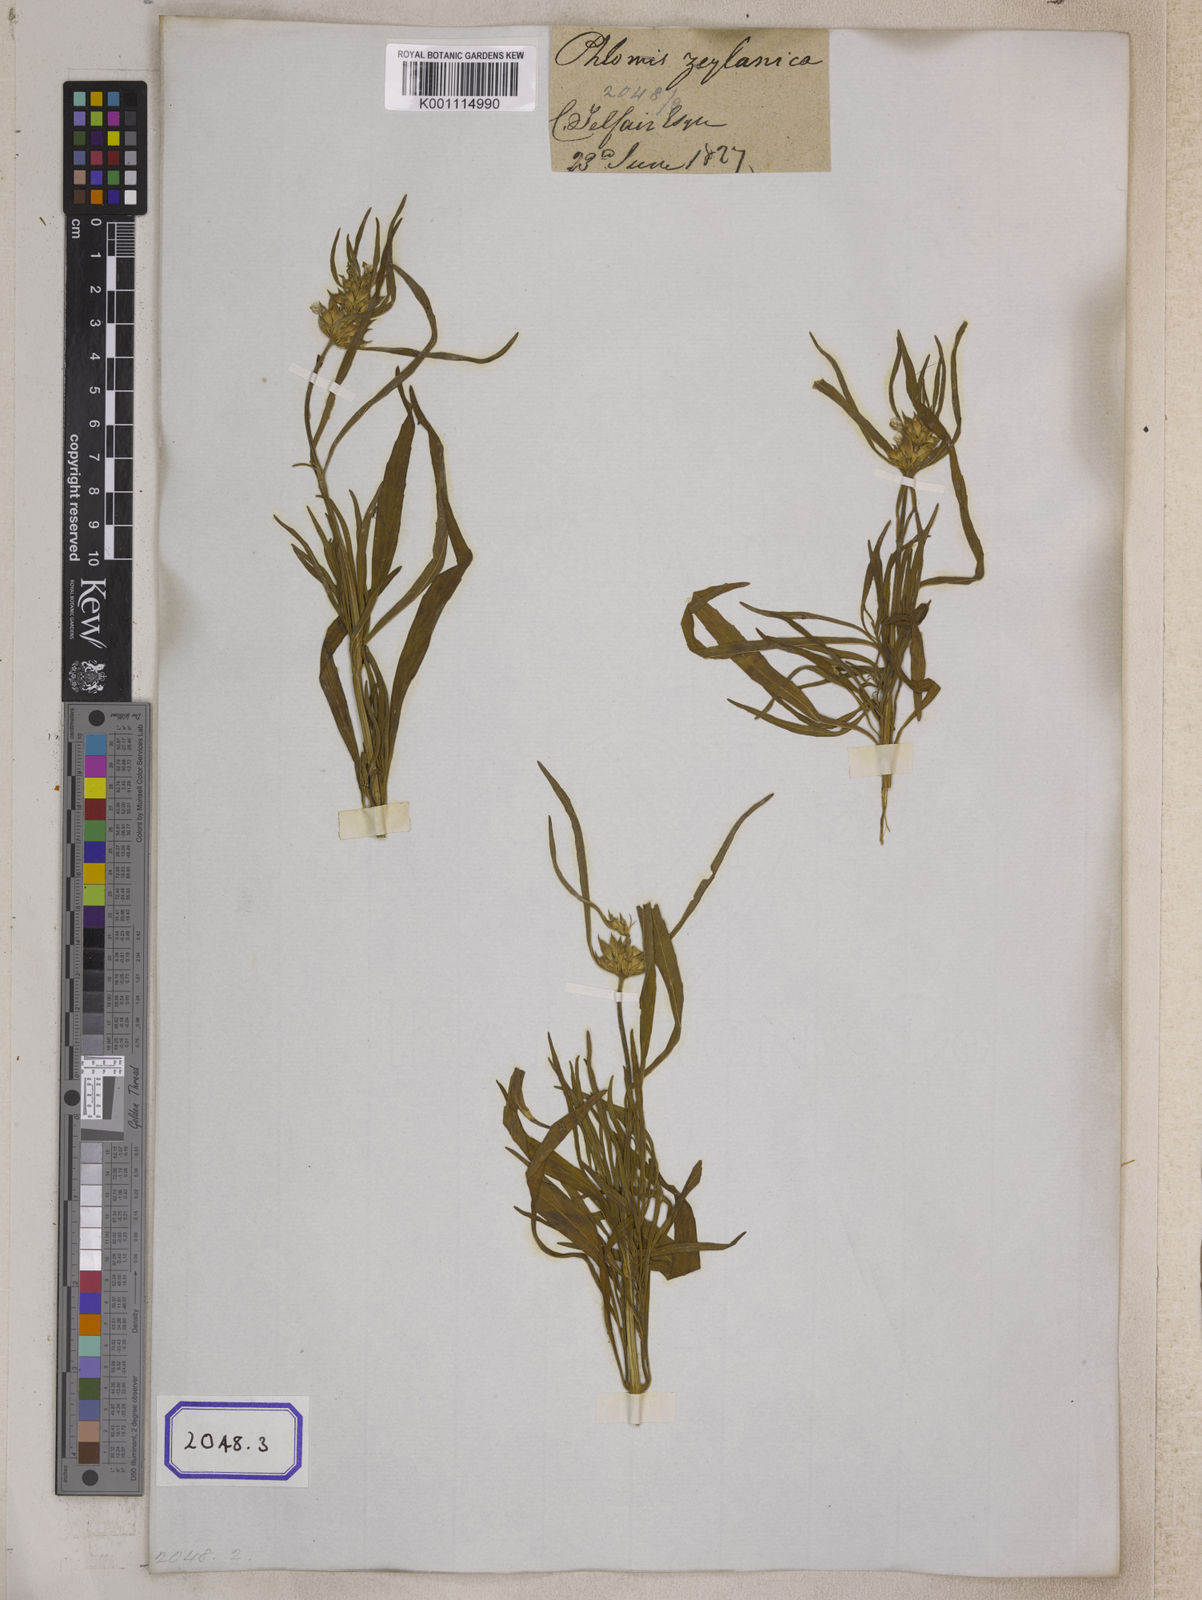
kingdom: Plantae
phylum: Tracheophyta
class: Magnoliopsida
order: Lamiales
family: Lamiaceae
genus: Leucas
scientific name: Leucas lavandulifolia
